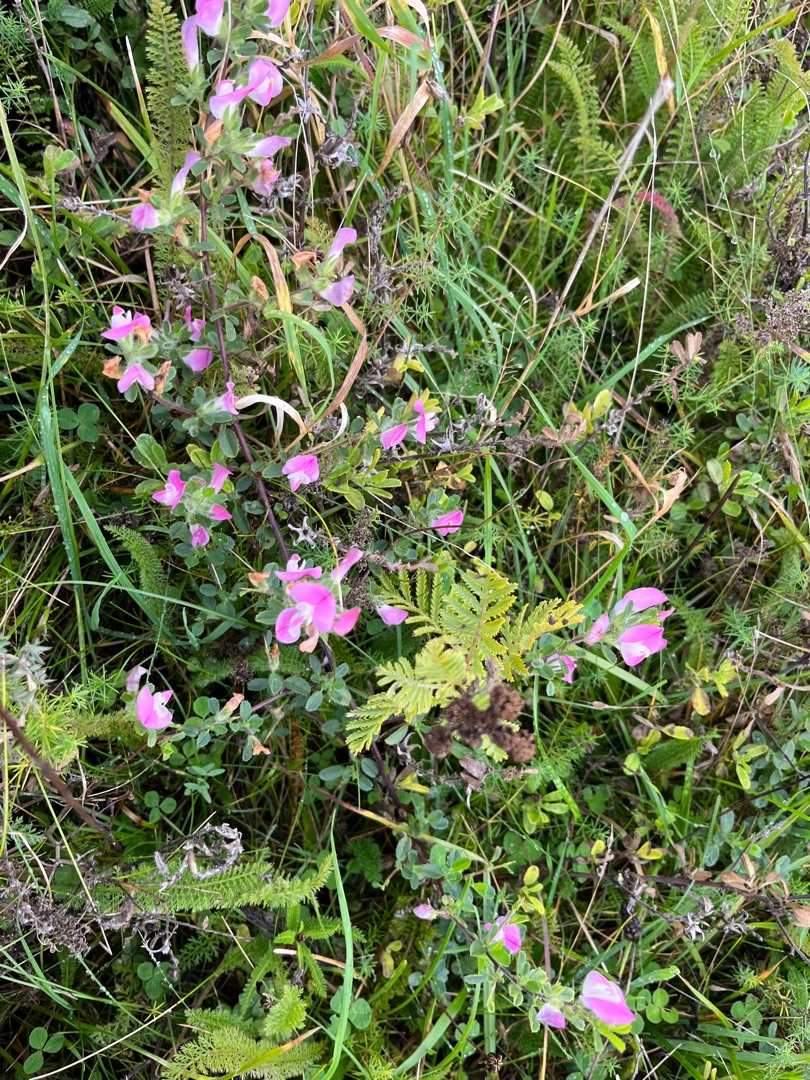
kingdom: Plantae
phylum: Tracheophyta
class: Magnoliopsida
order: Fabales
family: Fabaceae
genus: Ononis
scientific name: Ononis spinosa
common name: Mark-krageklo
